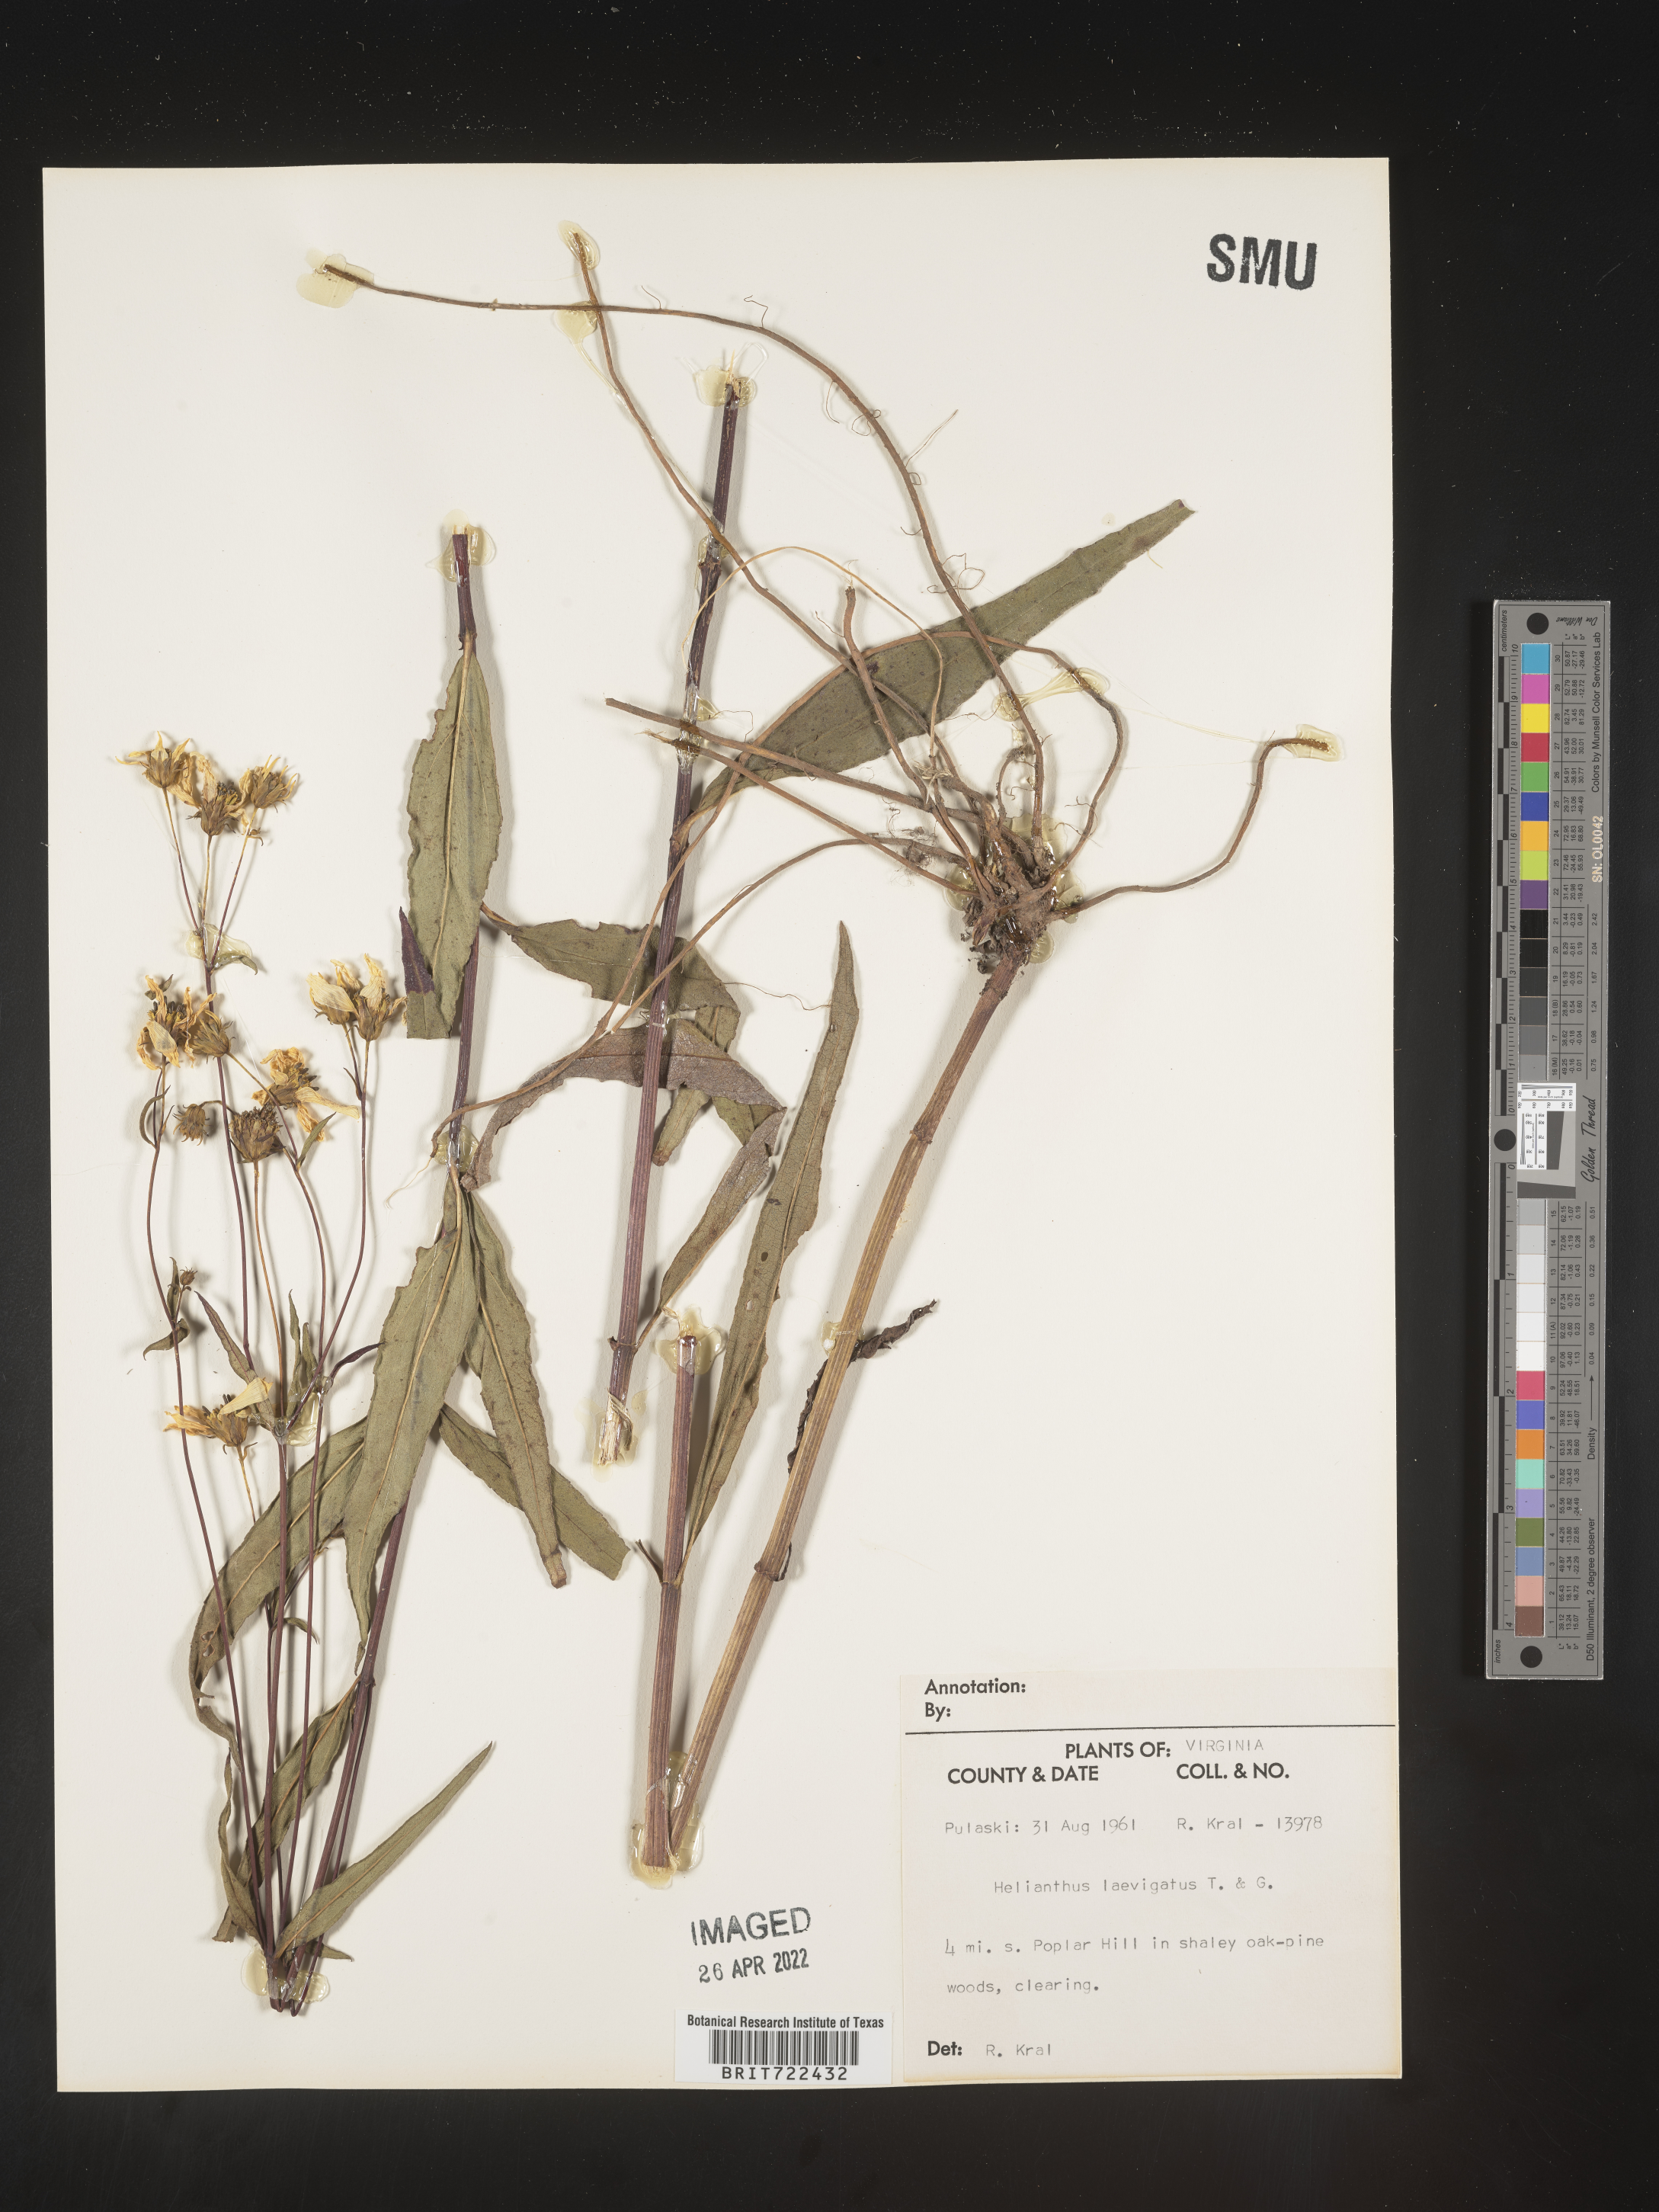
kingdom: Plantae
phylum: Tracheophyta
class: Magnoliopsida
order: Asterales
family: Asteraceae
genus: Helianthus
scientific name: Helianthus laevigatus
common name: Smooth sunflower
